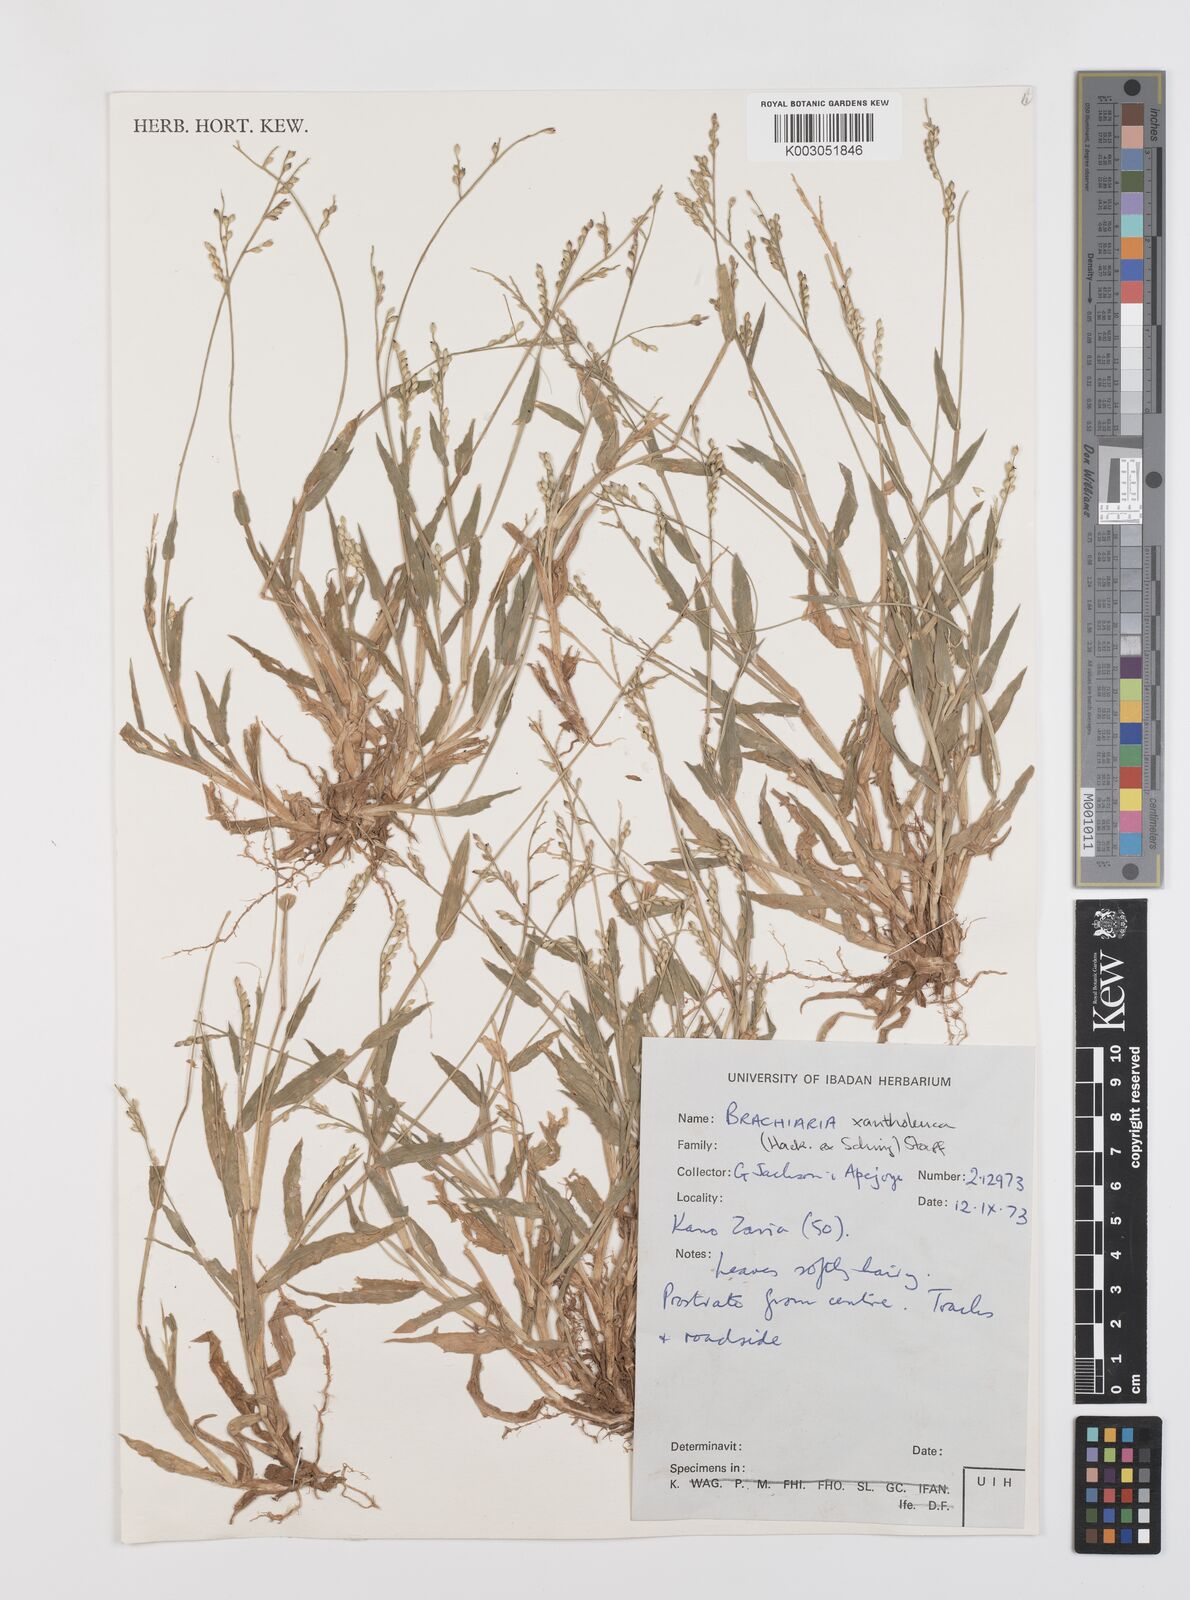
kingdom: Plantae
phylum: Tracheophyta
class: Liliopsida
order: Poales
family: Poaceae
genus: Urochloa
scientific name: Urochloa xantholeuca
